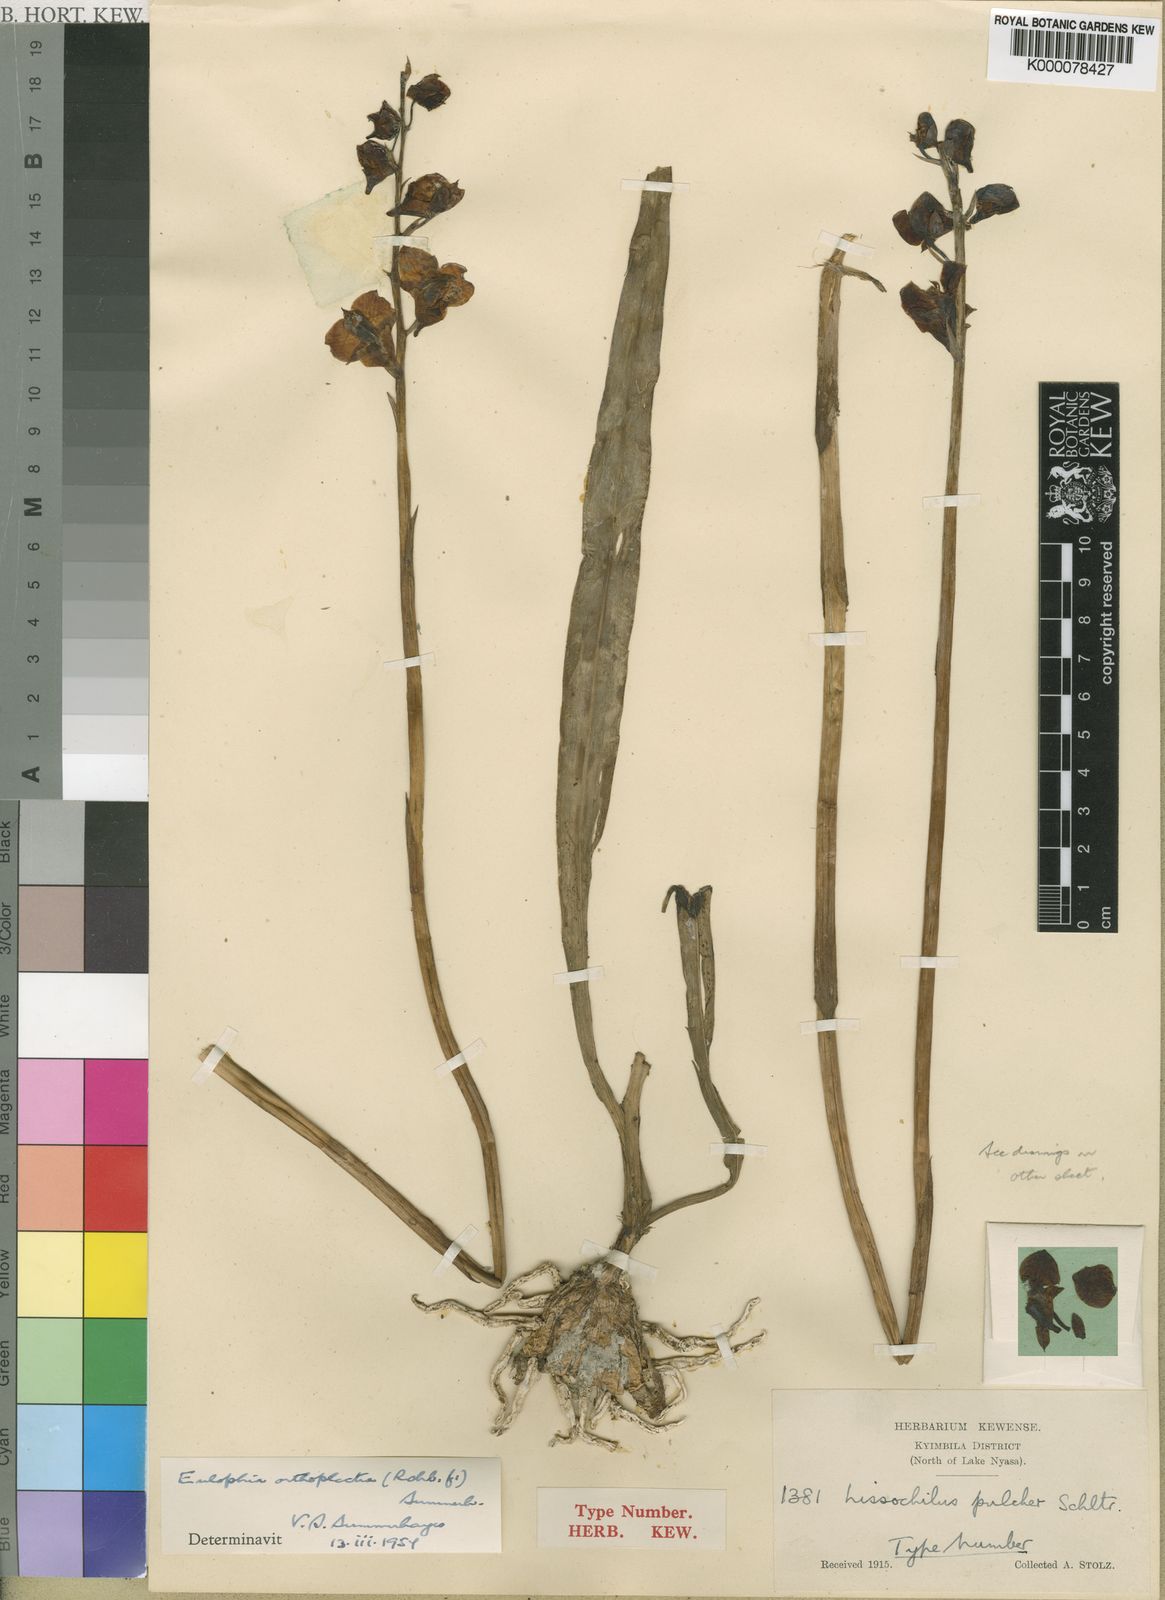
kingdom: Plantae
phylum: Tracheophyta
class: Liliopsida
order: Asparagales
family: Orchidaceae
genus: Eulophia
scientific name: Eulophia orthoplectra
